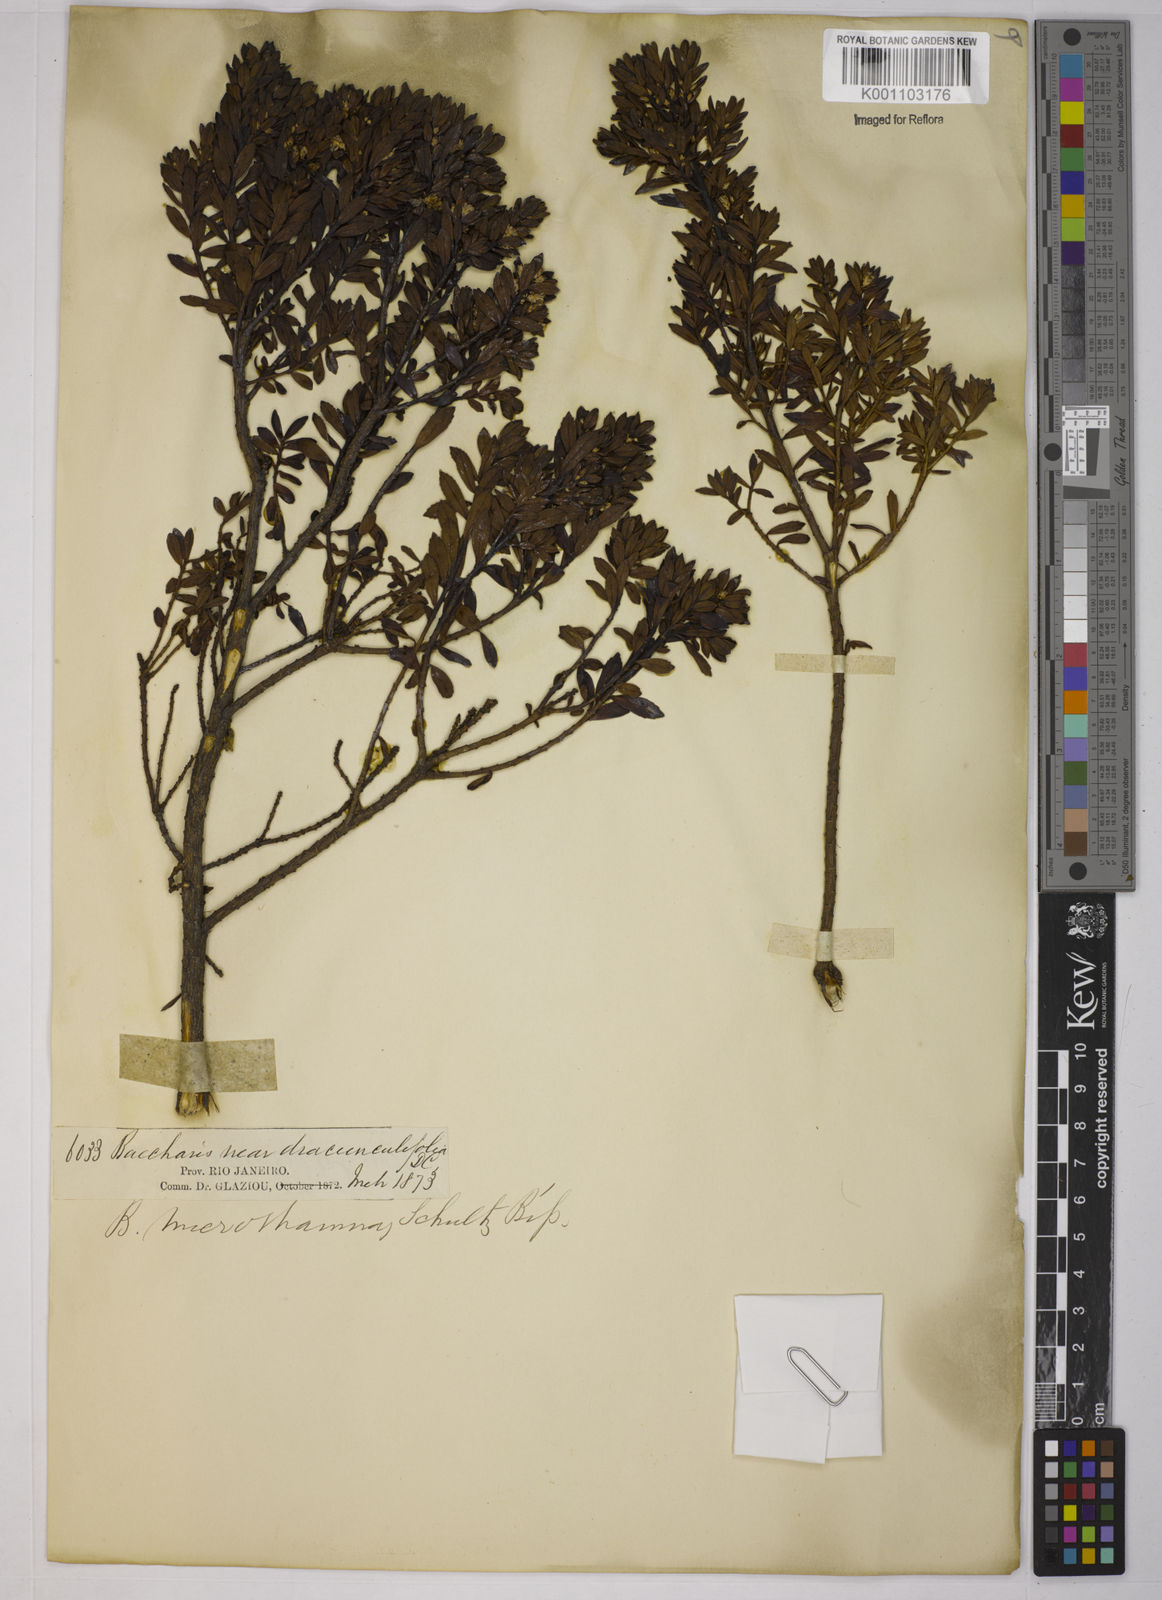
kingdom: Plantae
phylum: Tracheophyta
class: Magnoliopsida
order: Asterales
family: Asteraceae
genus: Baccharis
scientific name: Baccharis selloi
